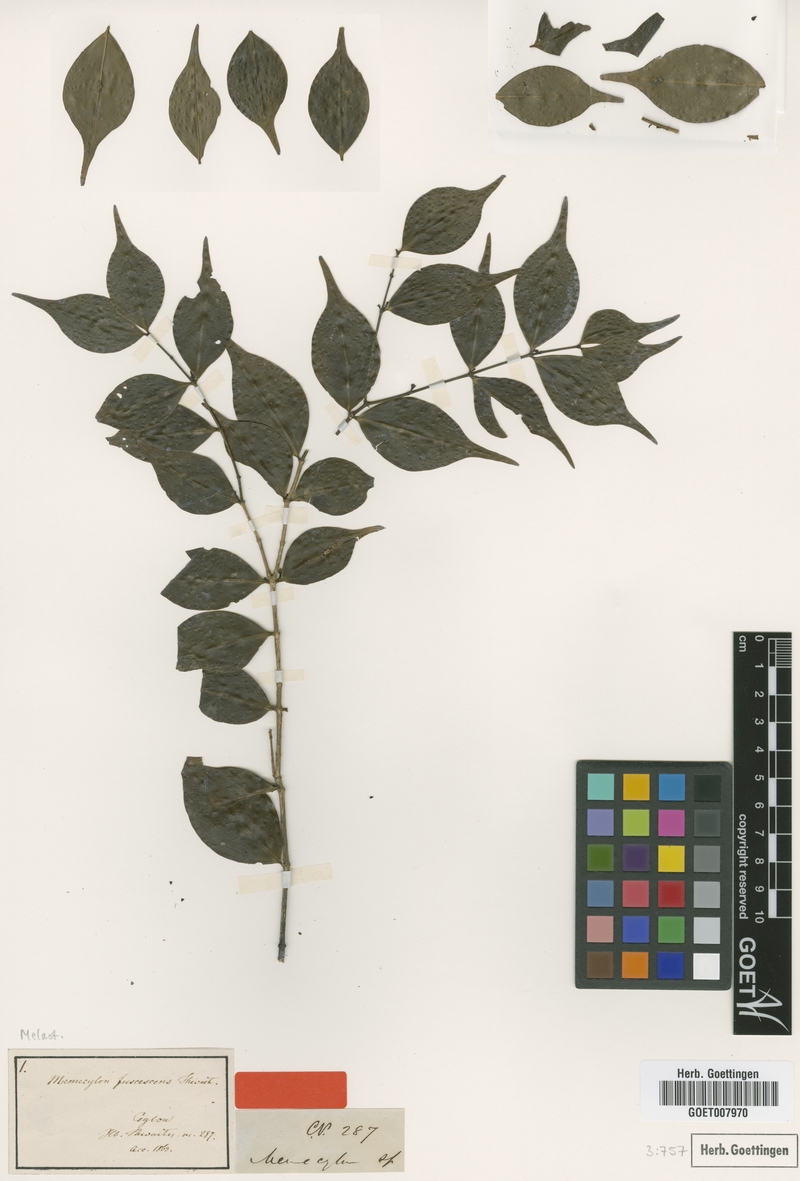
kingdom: Plantae
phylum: Tracheophyta
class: Magnoliopsida
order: Myrtales
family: Melastomataceae
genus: Memecylon
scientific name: Memecylon fuscescens
